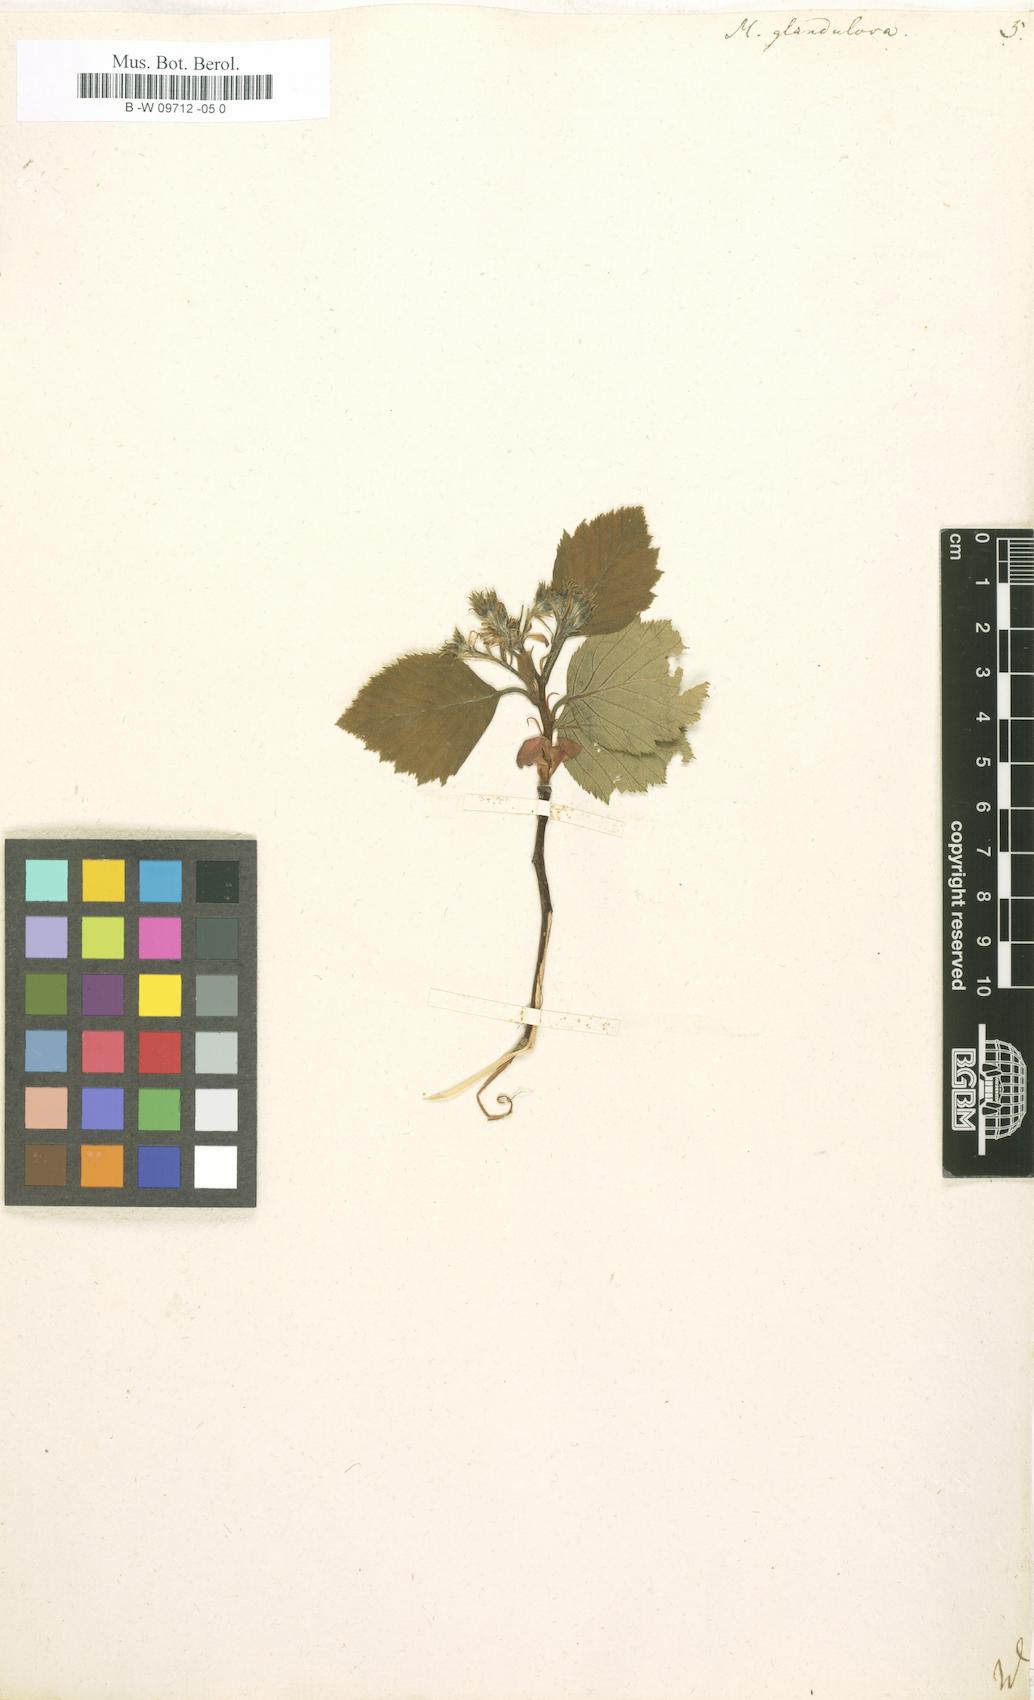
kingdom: Plantae
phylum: Tracheophyta
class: Magnoliopsida
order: Rosales
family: Rosaceae
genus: Crataegus
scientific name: Crataegus
